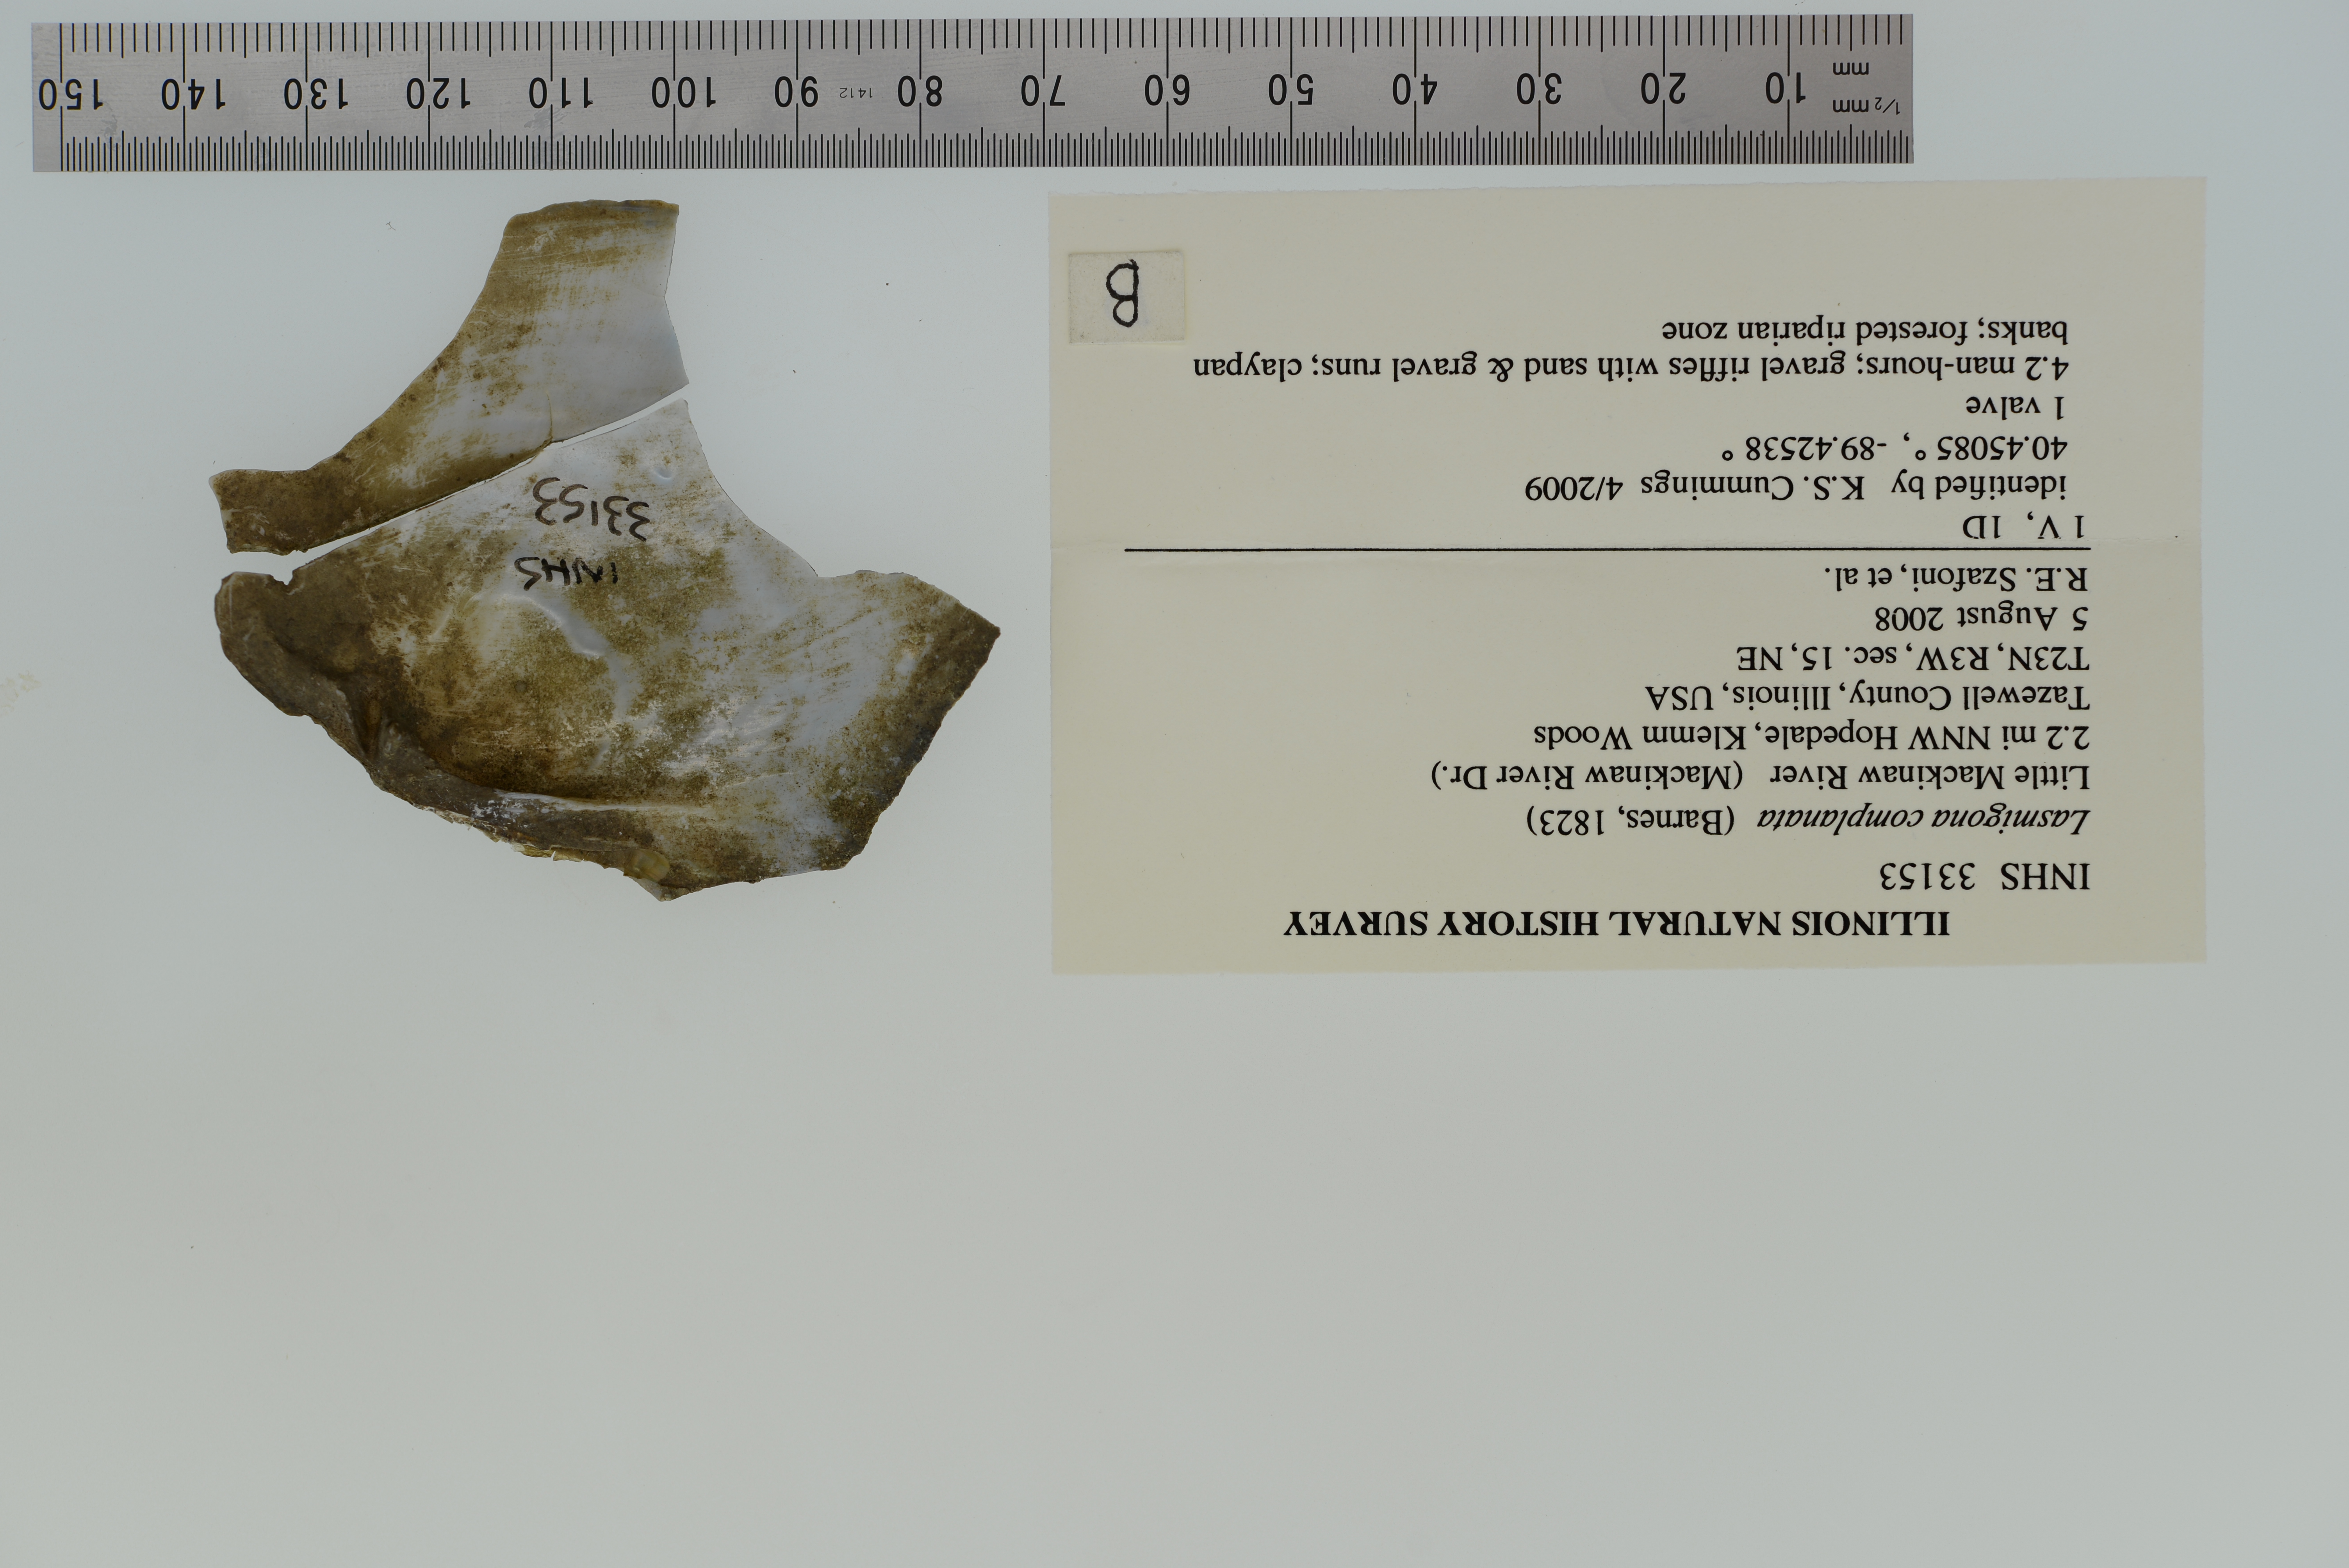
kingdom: Animalia
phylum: Mollusca
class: Bivalvia
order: Unionida
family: Unionidae
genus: Lasmigona
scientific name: Lasmigona complanata
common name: White heelsplitter
